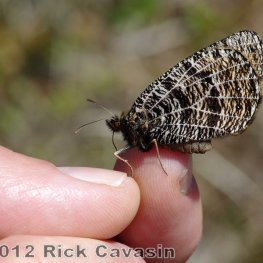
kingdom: Animalia
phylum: Arthropoda
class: Insecta
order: Lepidoptera
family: Nymphalidae
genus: Oeneis
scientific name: Oeneis chryxus
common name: Chryxus Arctic
